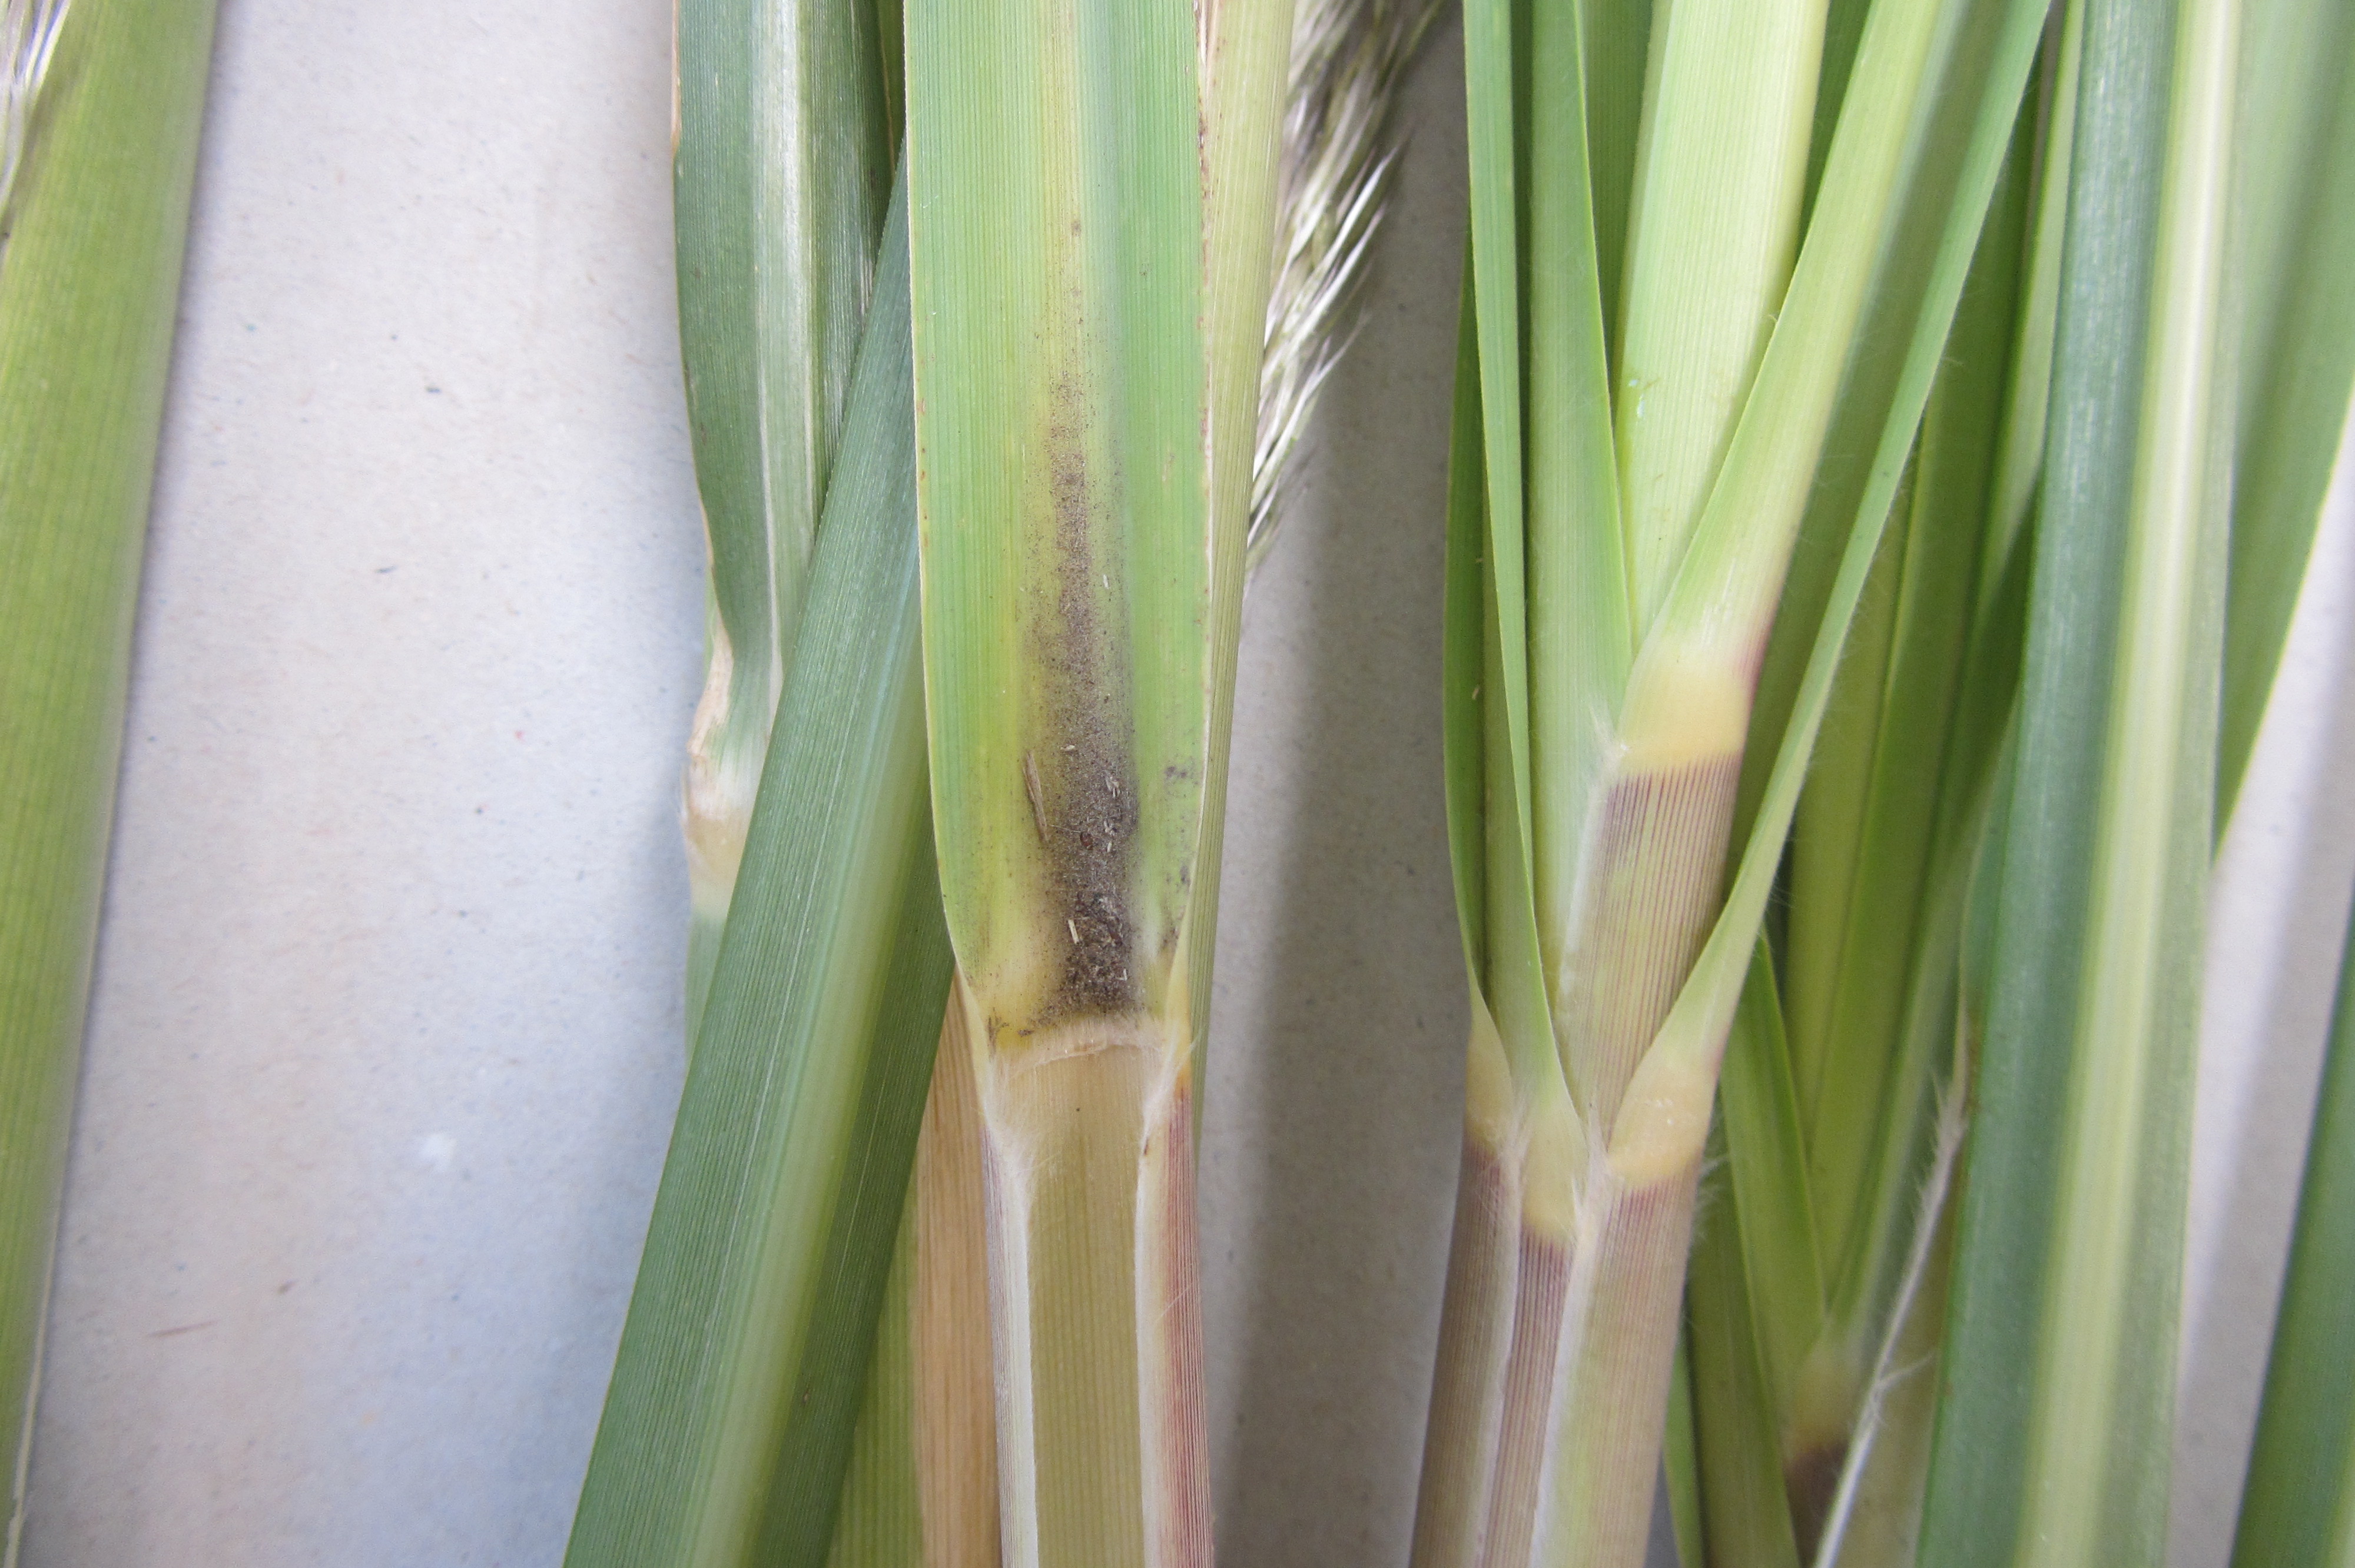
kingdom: Plantae
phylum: Tracheophyta
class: Liliopsida
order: Poales
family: Poaceae
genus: Cortaderia
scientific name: Cortaderia selloana
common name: Uruguayan pampas grass
